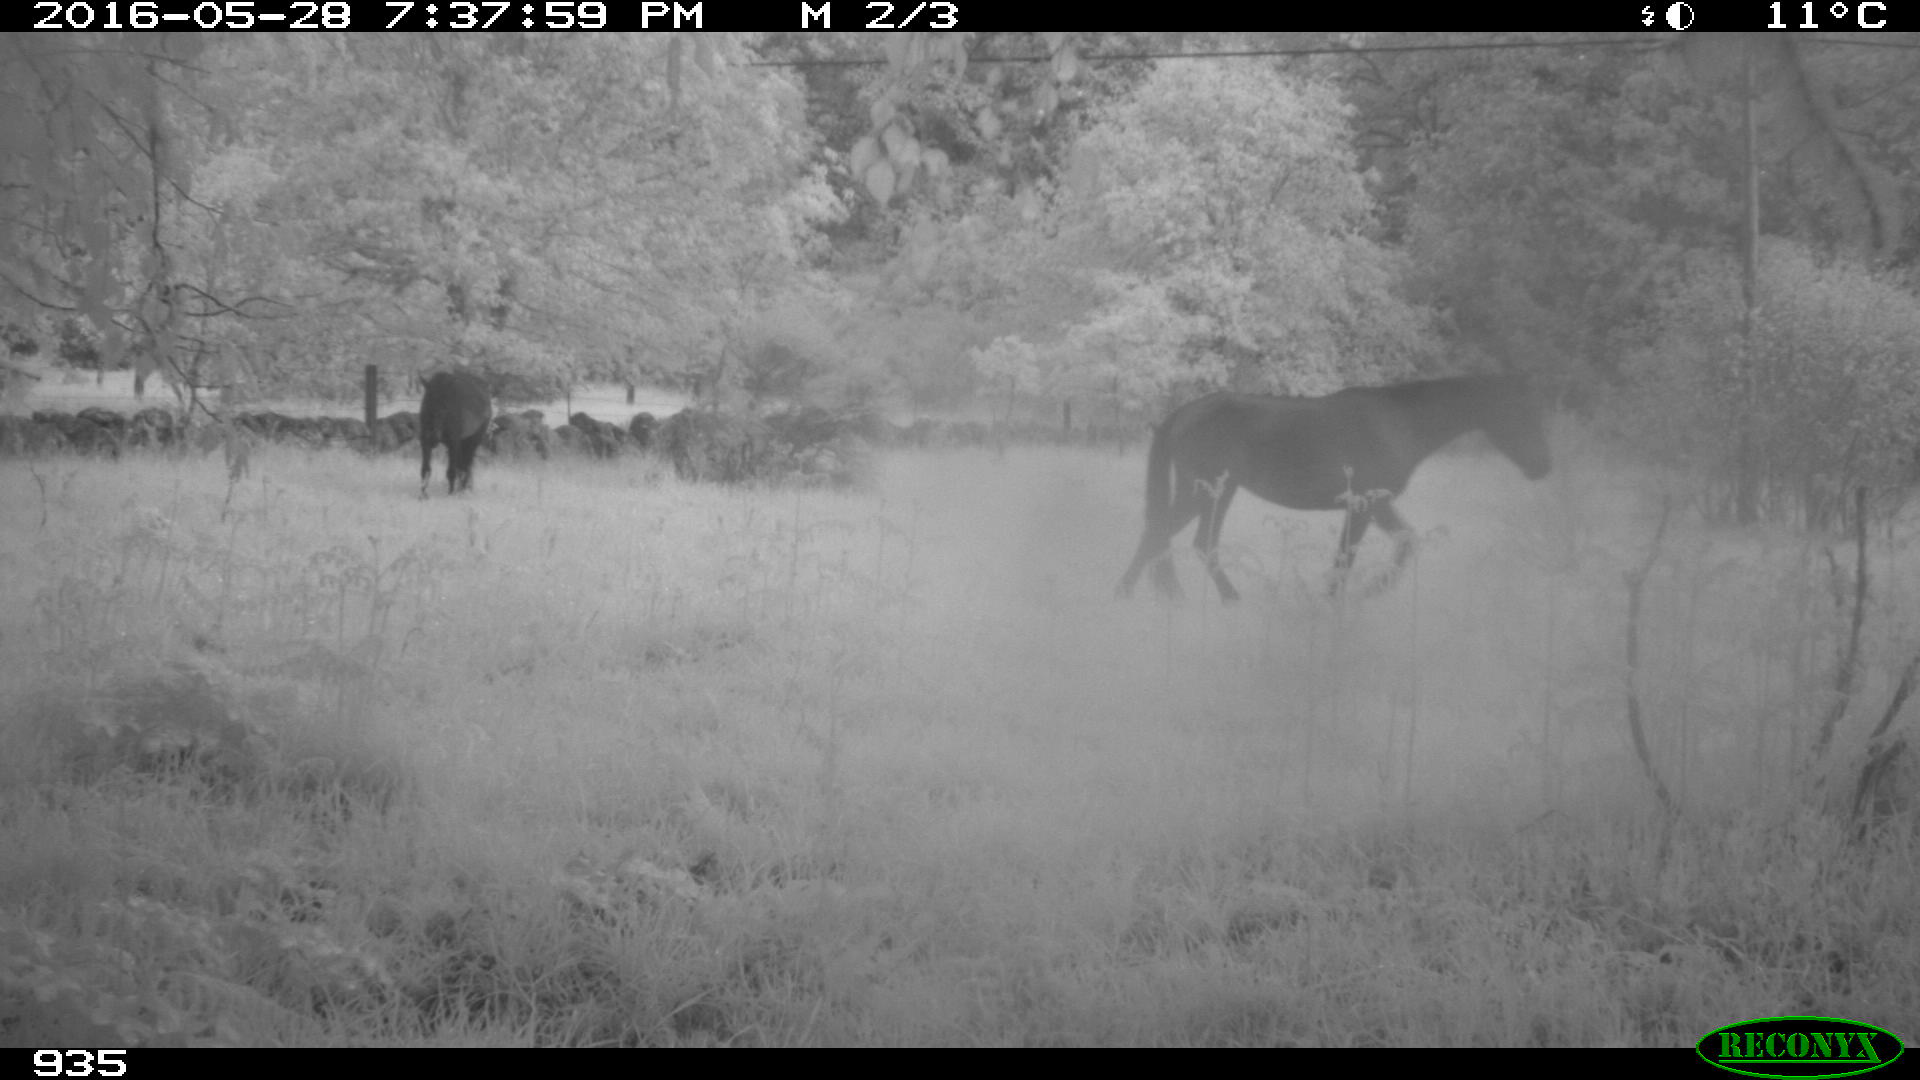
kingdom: Animalia
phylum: Chordata
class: Mammalia
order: Perissodactyla
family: Equidae
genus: Equus
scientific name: Equus caballus
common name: Horse
